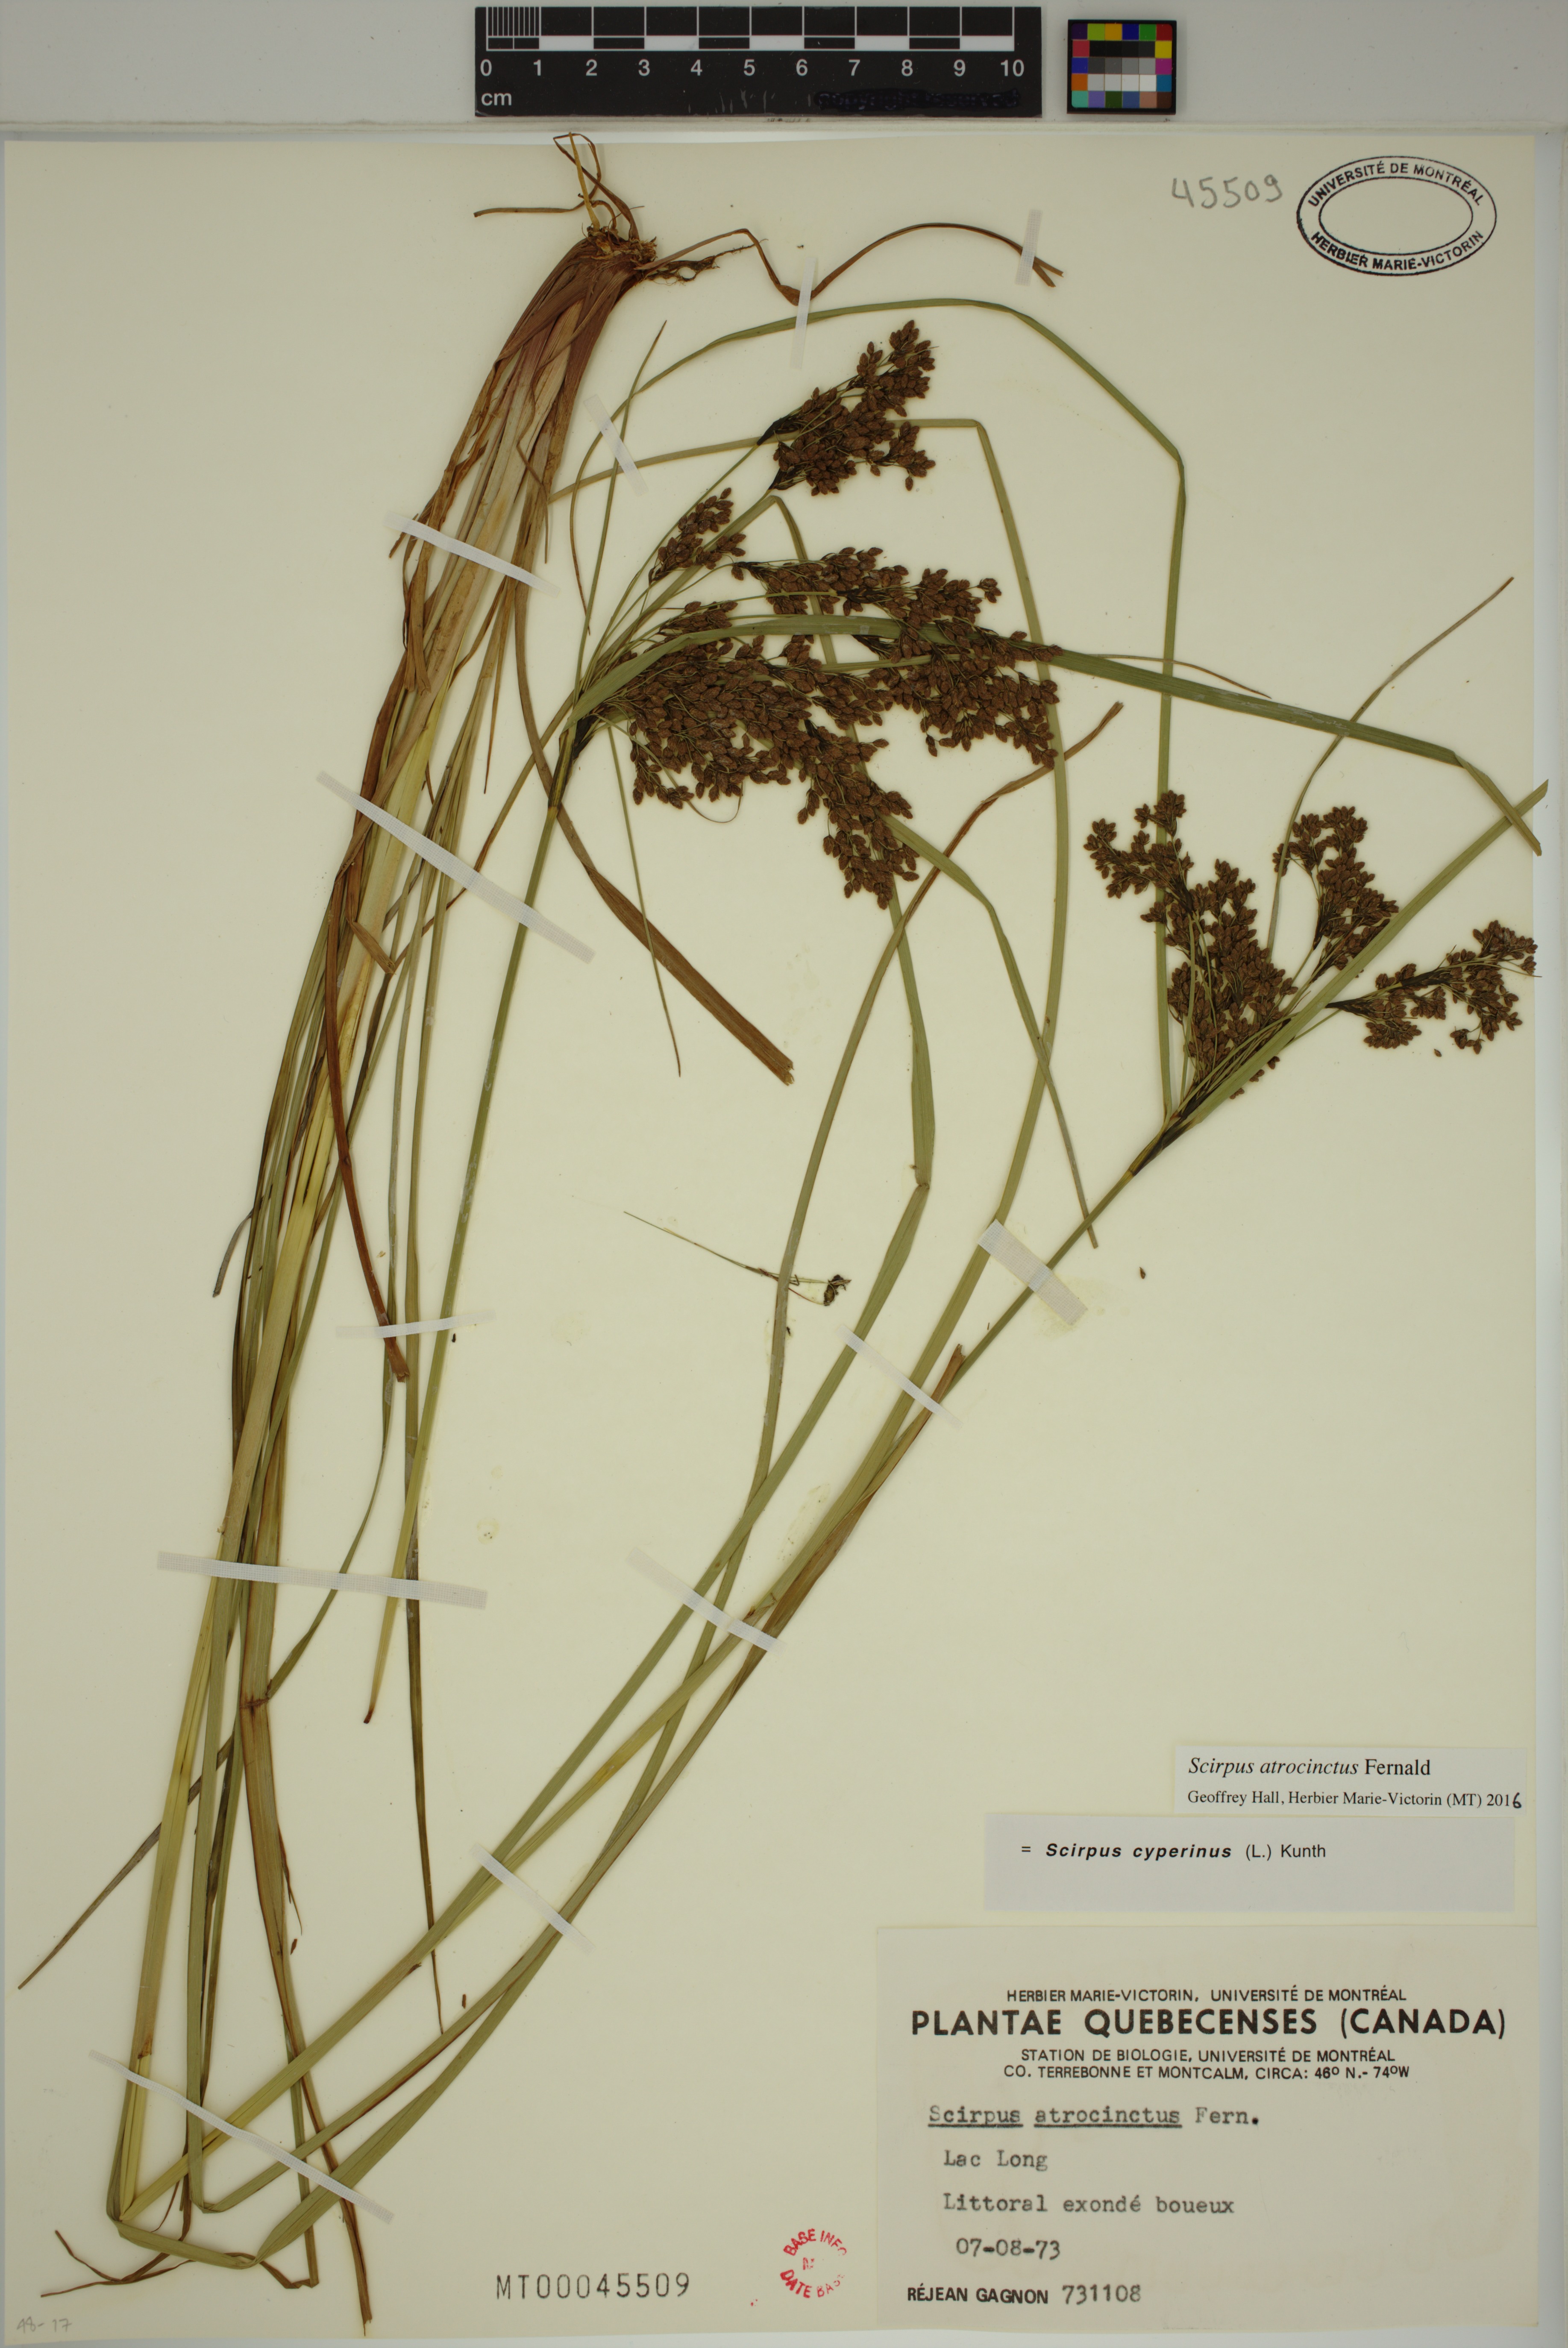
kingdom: Plantae
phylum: Tracheophyta
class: Liliopsida
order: Poales
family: Cyperaceae
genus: Scirpus
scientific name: Scirpus cyperinus
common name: Black-sheathed bulrush
